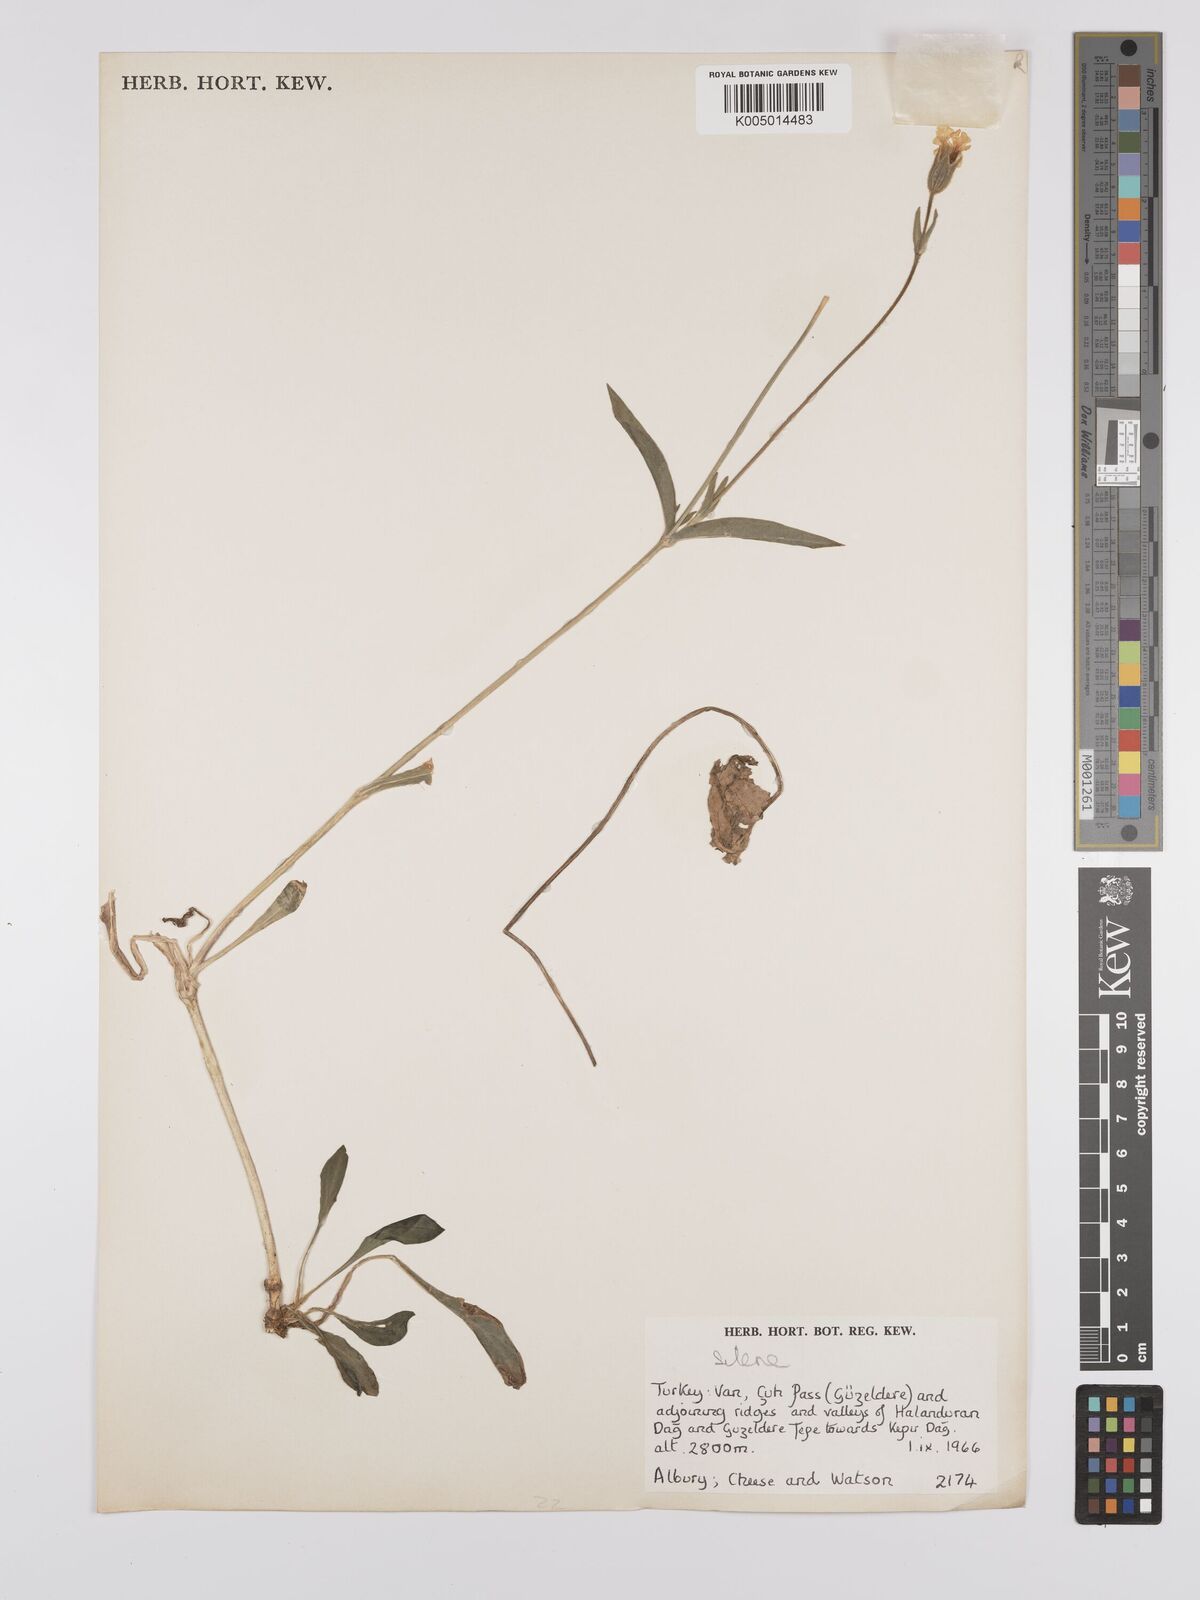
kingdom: Plantae
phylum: Tracheophyta
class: Magnoliopsida
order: Caryophyllales
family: Caryophyllaceae
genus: Silene
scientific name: Silene
